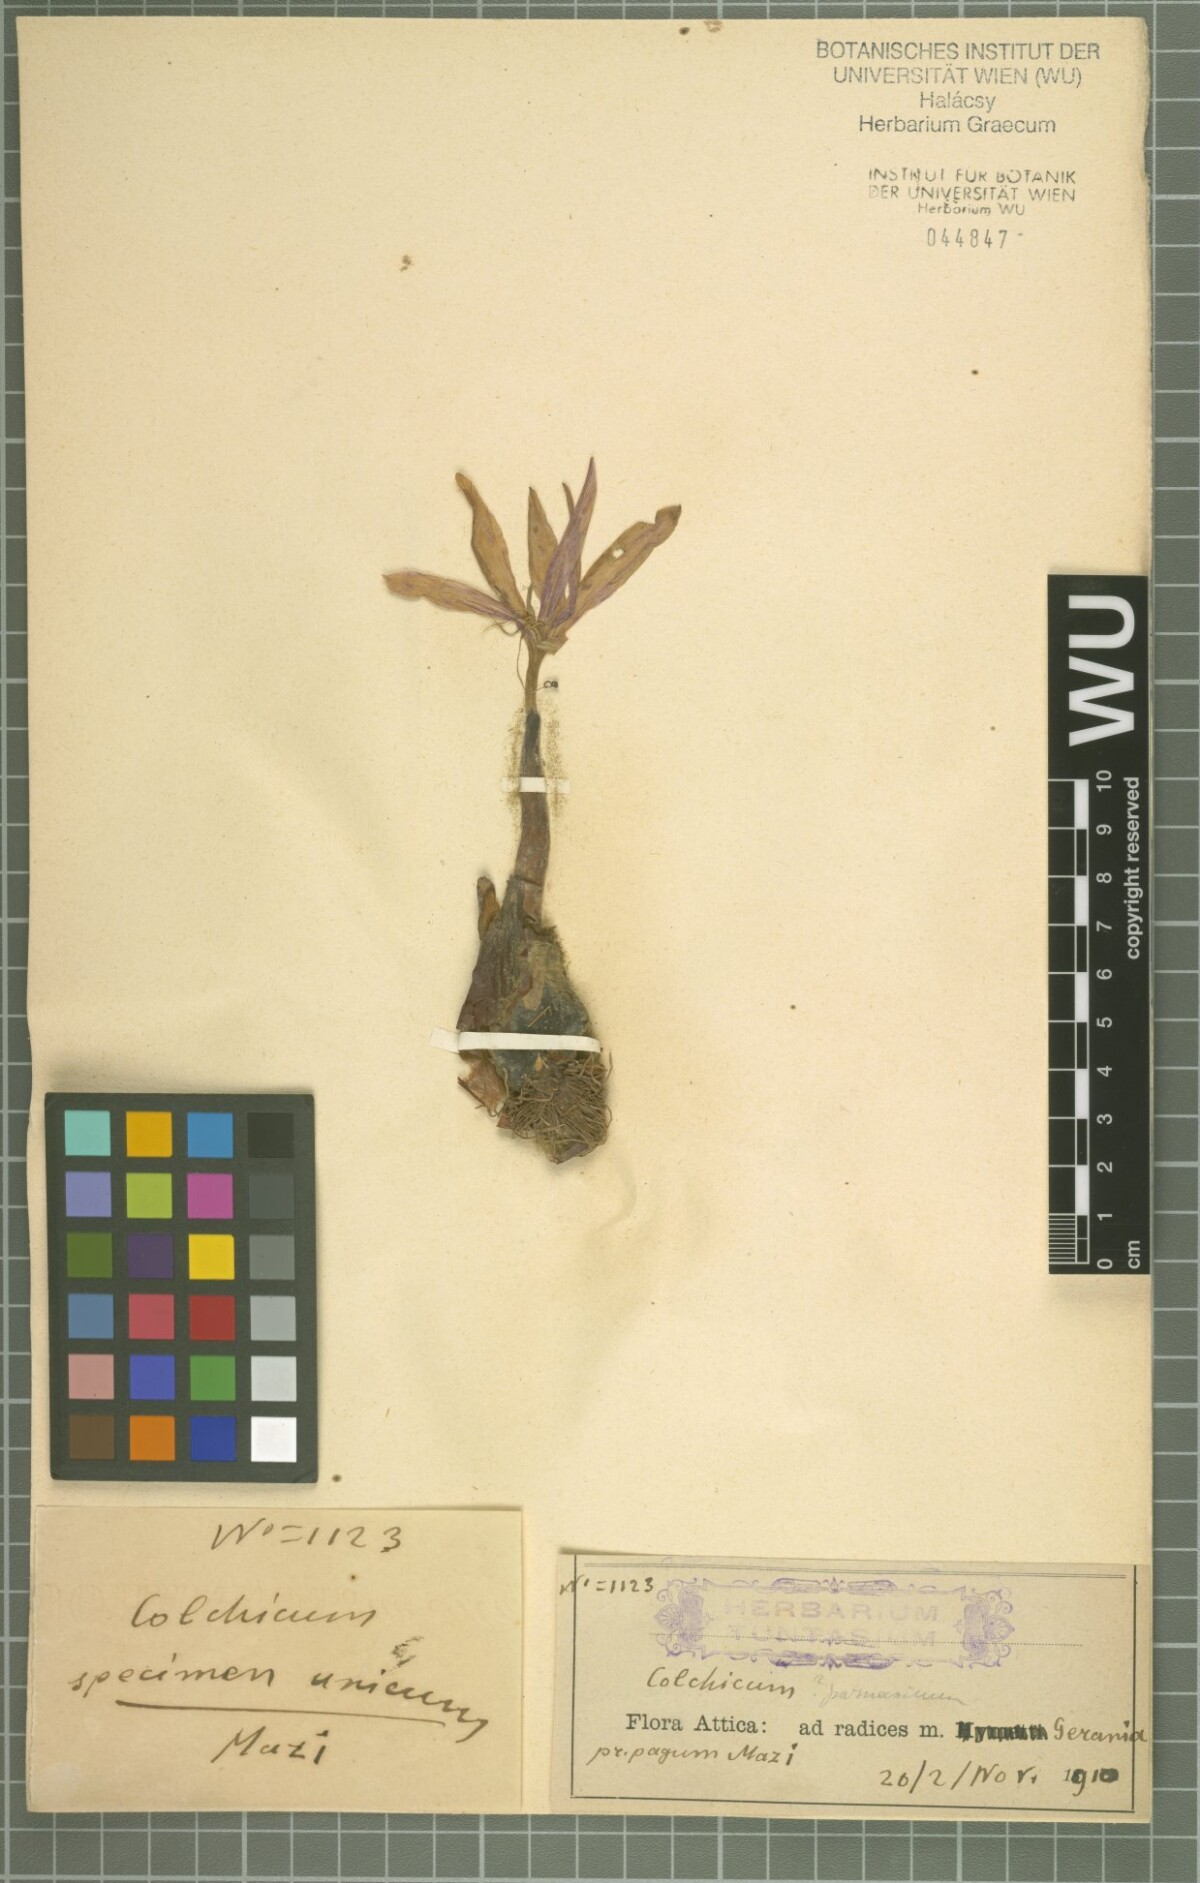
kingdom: Plantae
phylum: Tracheophyta
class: Liliopsida
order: Liliales
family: Colchicaceae
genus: Colchicum
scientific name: Colchicum bivonae
